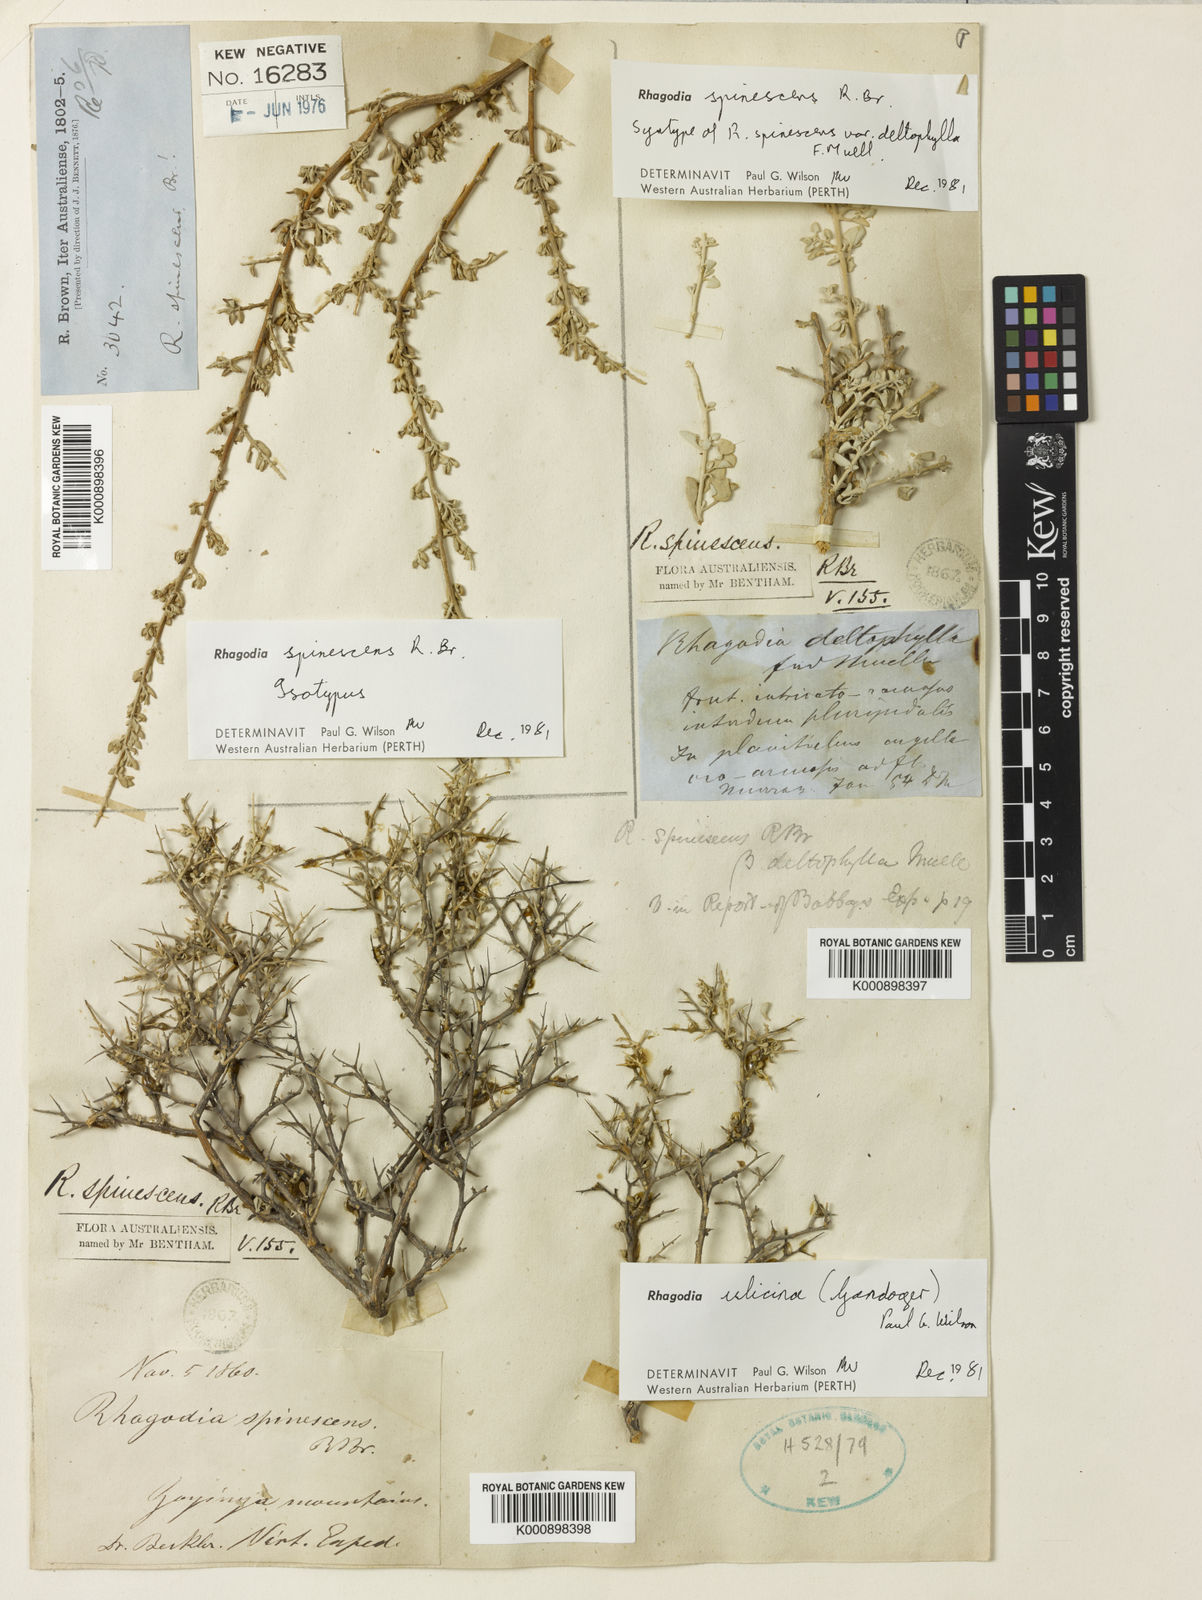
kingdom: Plantae
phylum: Tracheophyta
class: Magnoliopsida
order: Caryophyllales
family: Amaranthaceae
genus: Chenopodium
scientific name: Chenopodium spinescens
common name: Berry-saltbush
